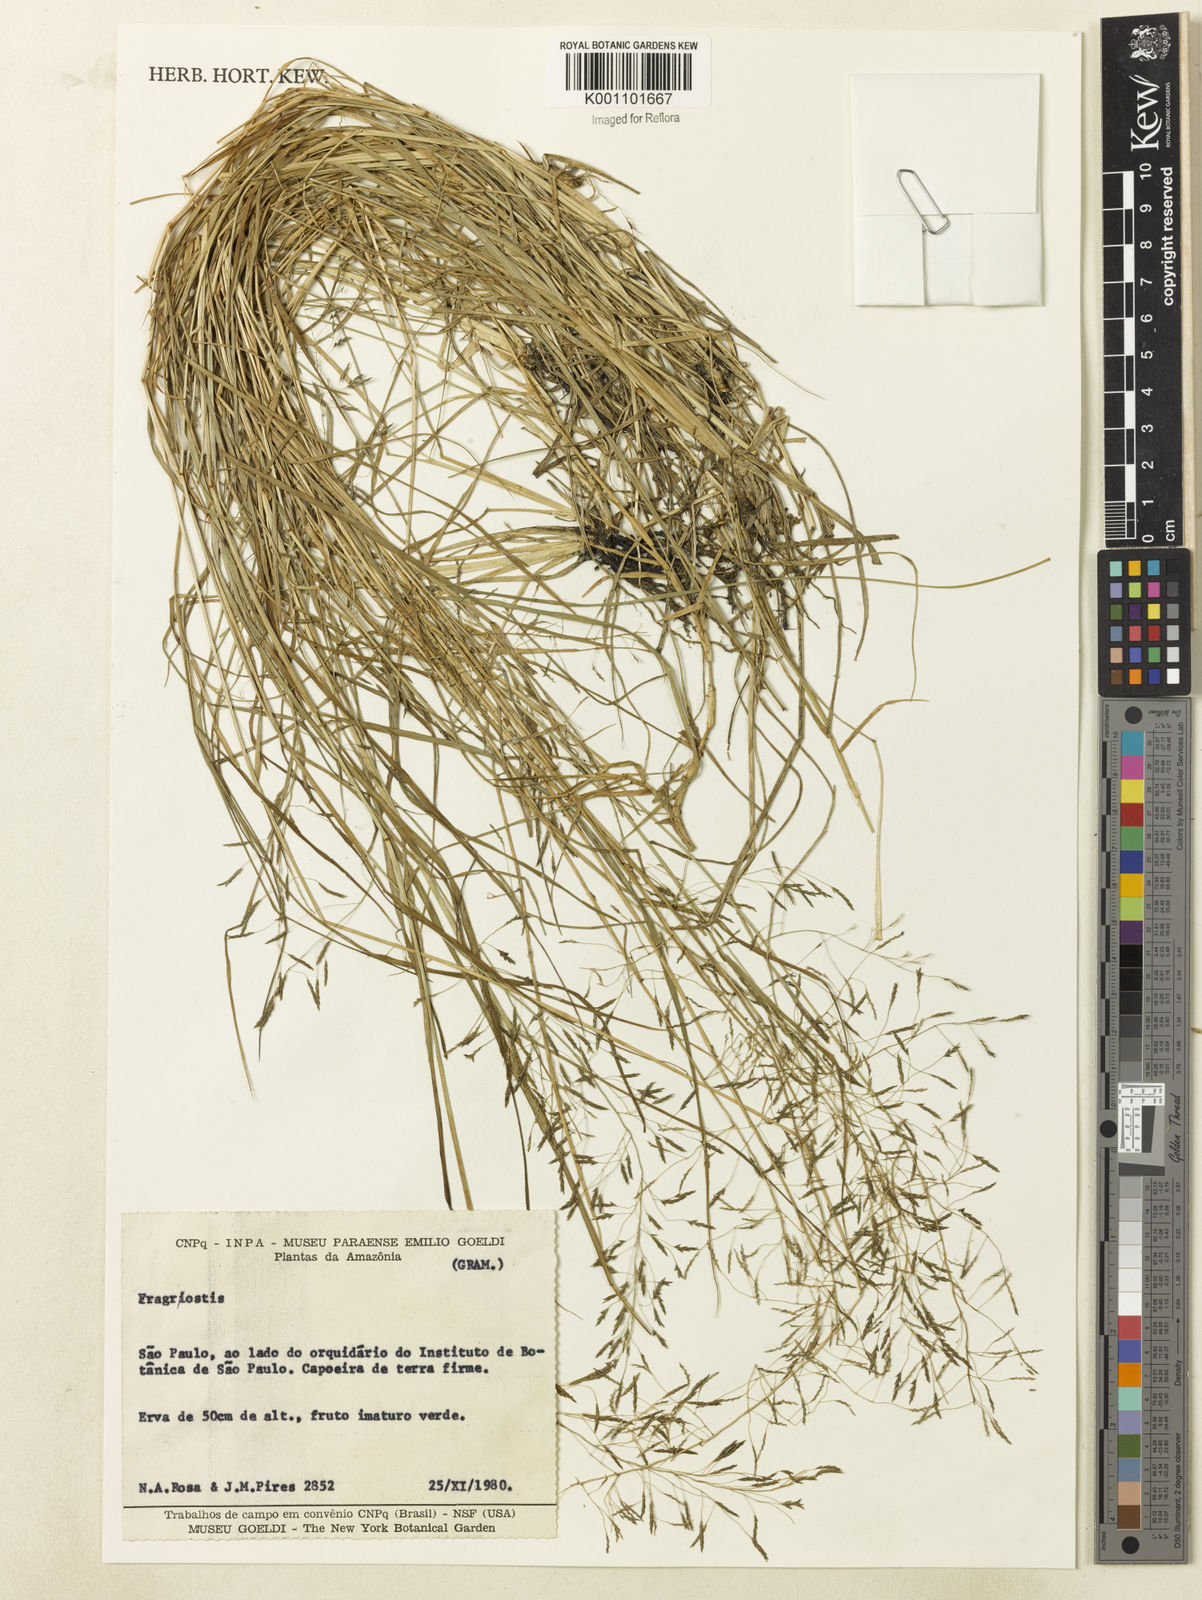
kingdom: Plantae
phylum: Tracheophyta
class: Liliopsida
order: Poales
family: Poaceae
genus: Eragrostis
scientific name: Eragrostis patula
